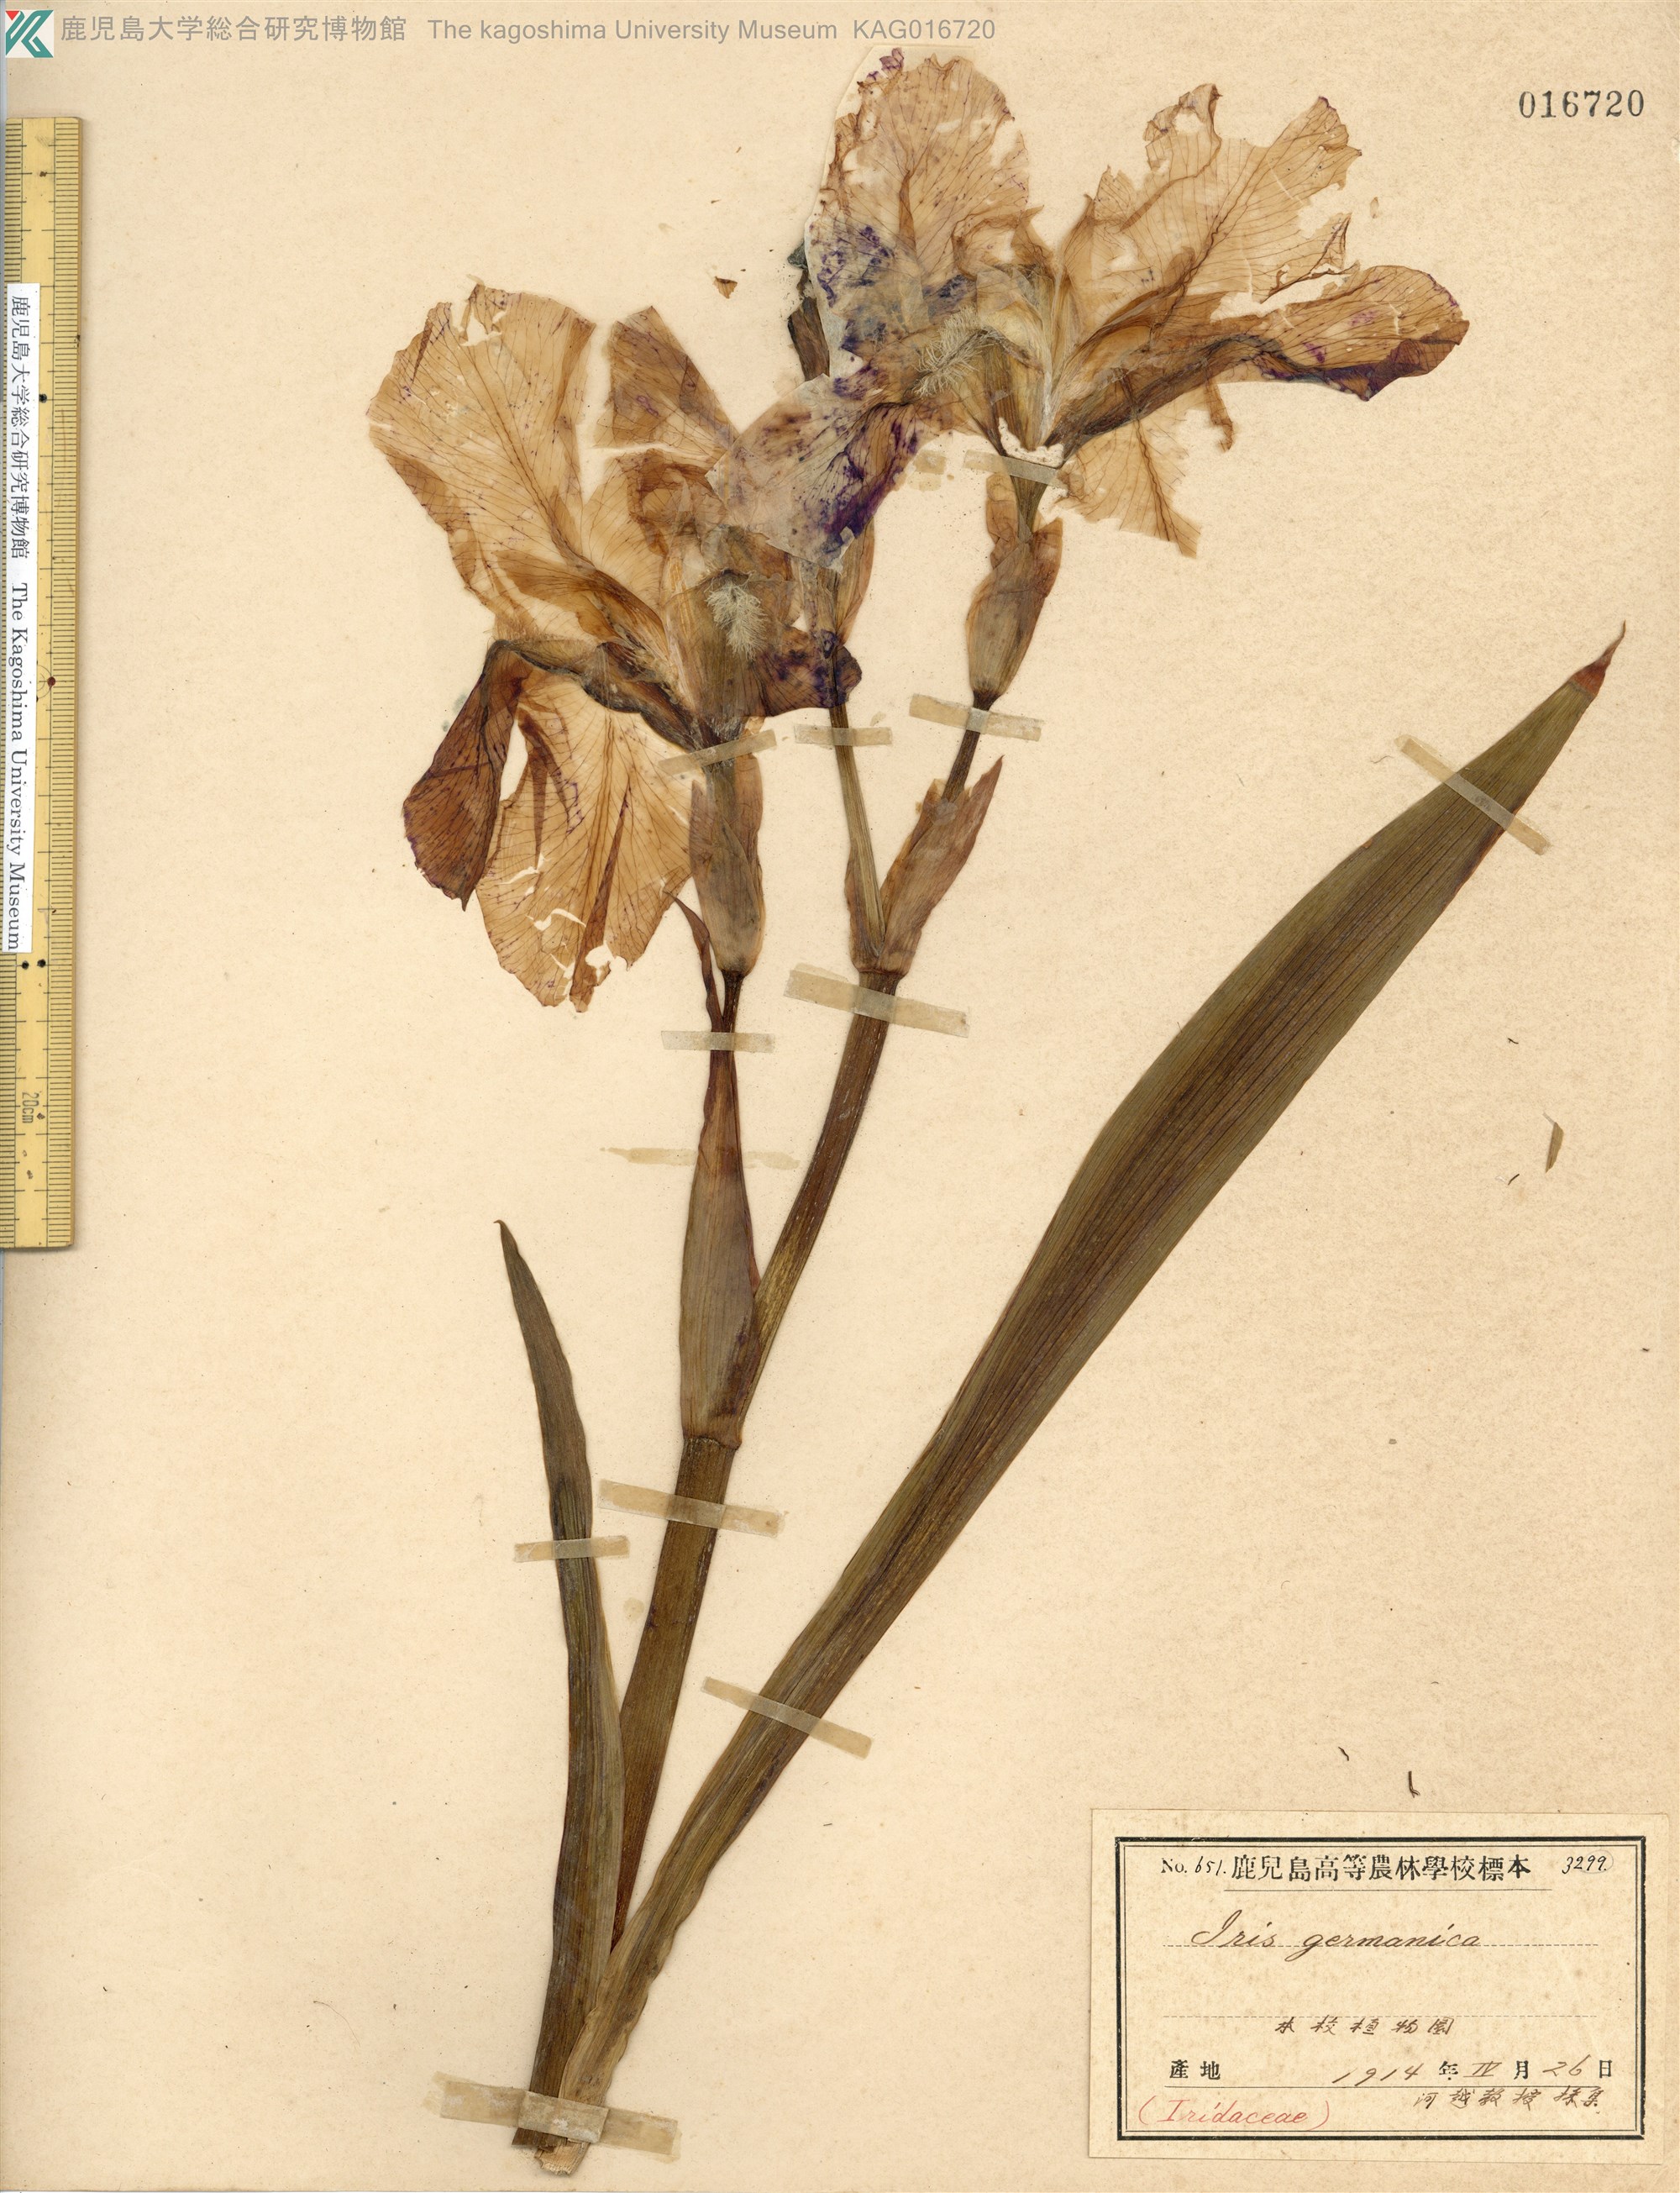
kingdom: Plantae
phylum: Tracheophyta
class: Liliopsida
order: Asparagales
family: Iridaceae
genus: Iris
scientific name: Iris germanica
